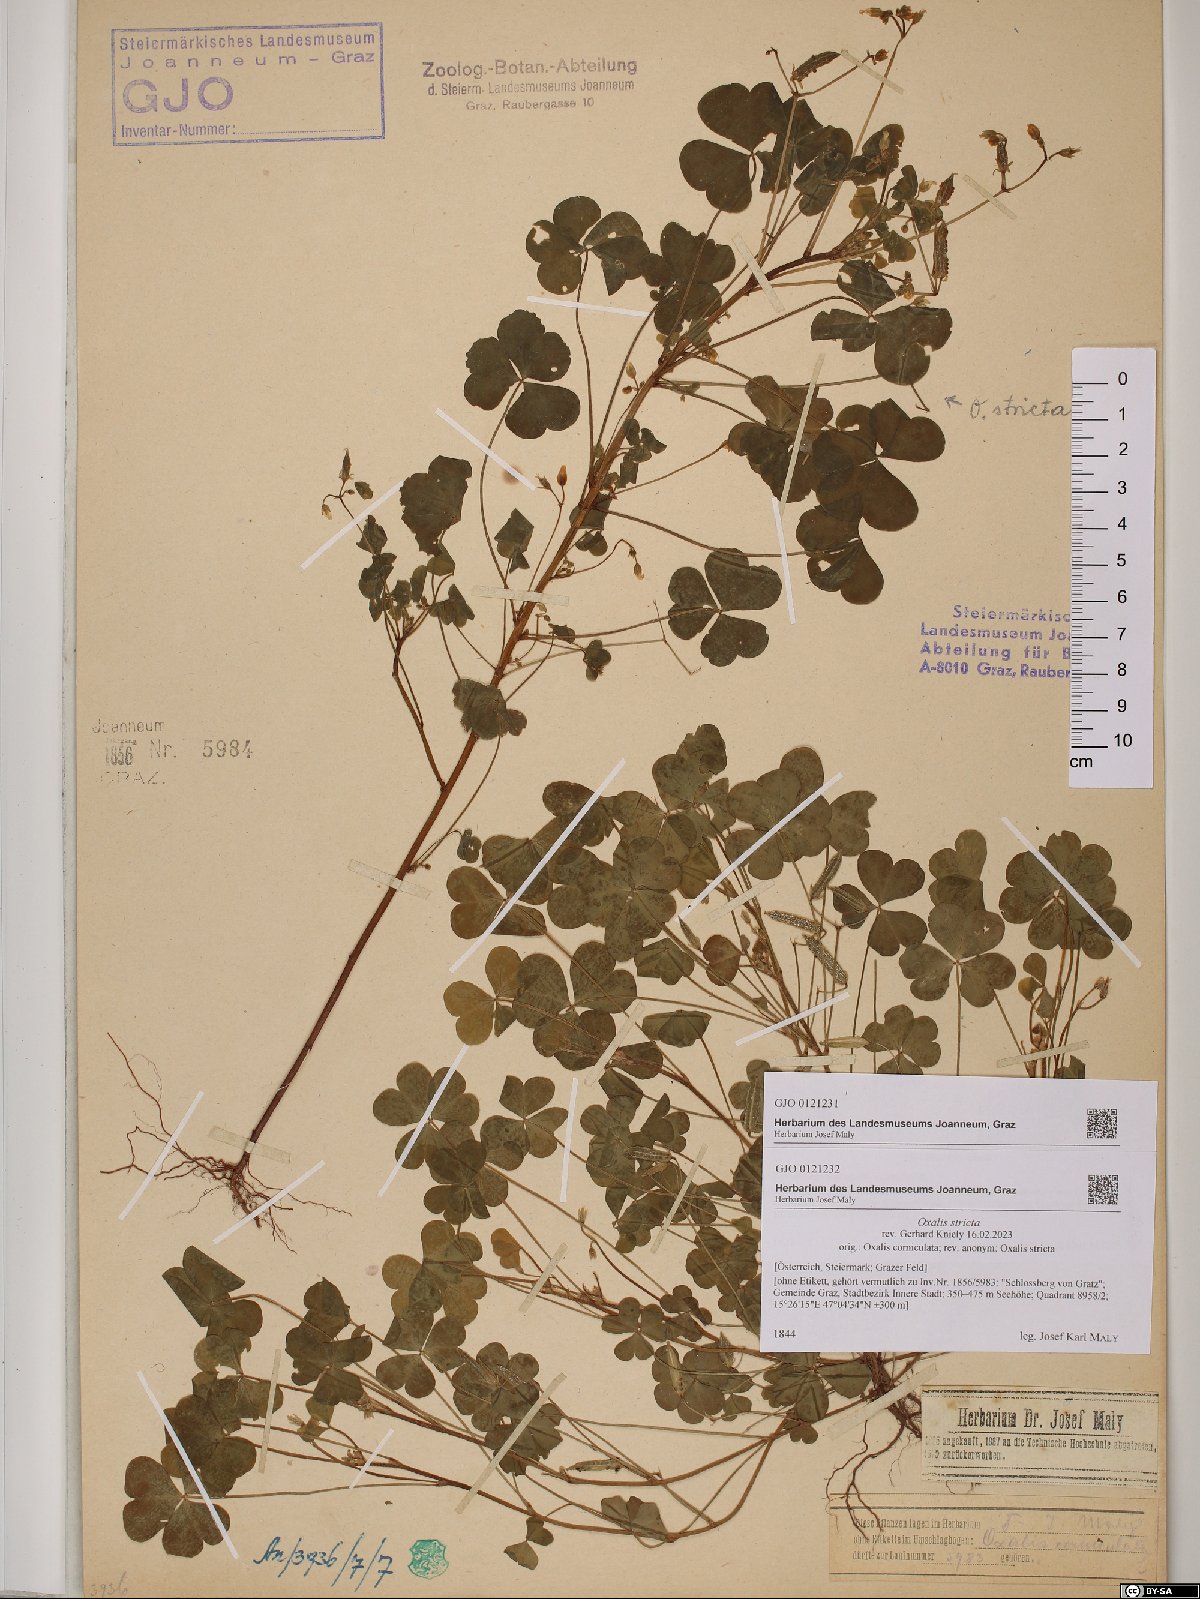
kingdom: Plantae
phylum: Tracheophyta
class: Magnoliopsida
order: Oxalidales
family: Oxalidaceae
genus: Oxalis
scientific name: Oxalis corniculata
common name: Procumbent yellow-sorrel
